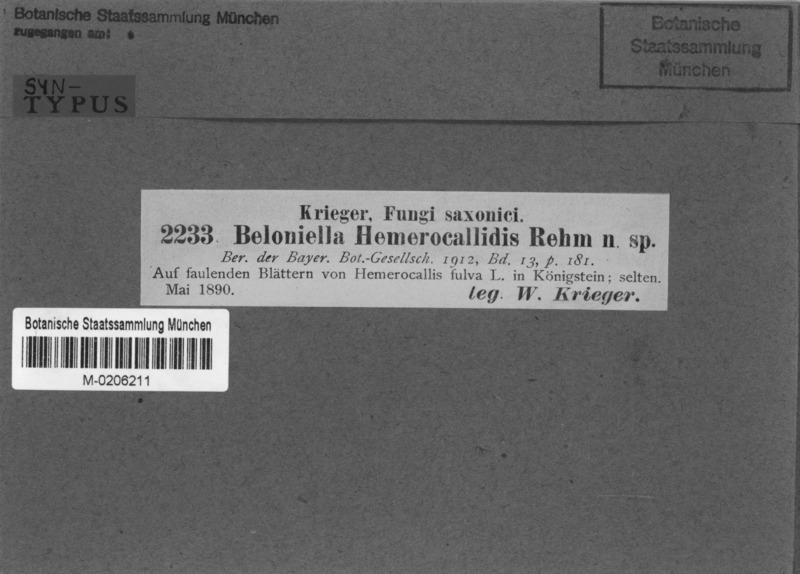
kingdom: Fungi
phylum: Ascomycota
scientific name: Ascomycota
